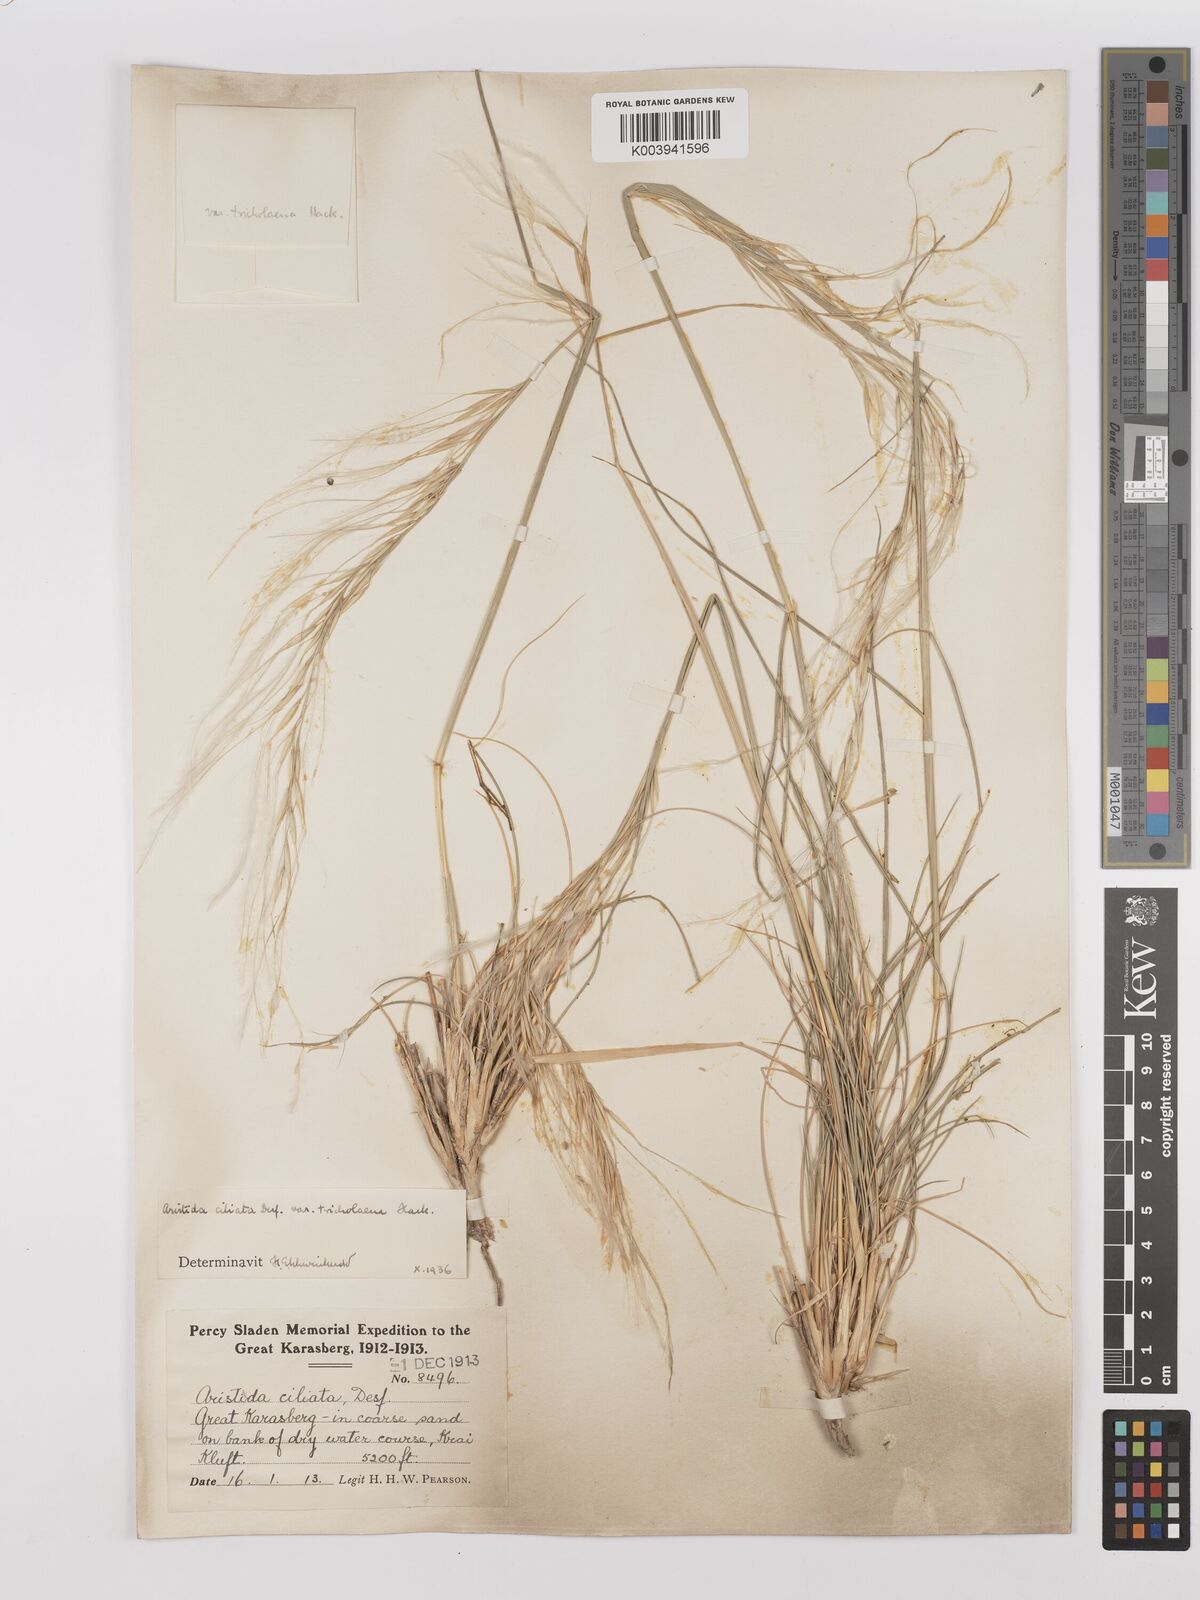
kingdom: Plantae
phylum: Tracheophyta
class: Liliopsida
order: Poales
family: Poaceae
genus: Stipagrostis
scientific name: Stipagrostis ciliata
